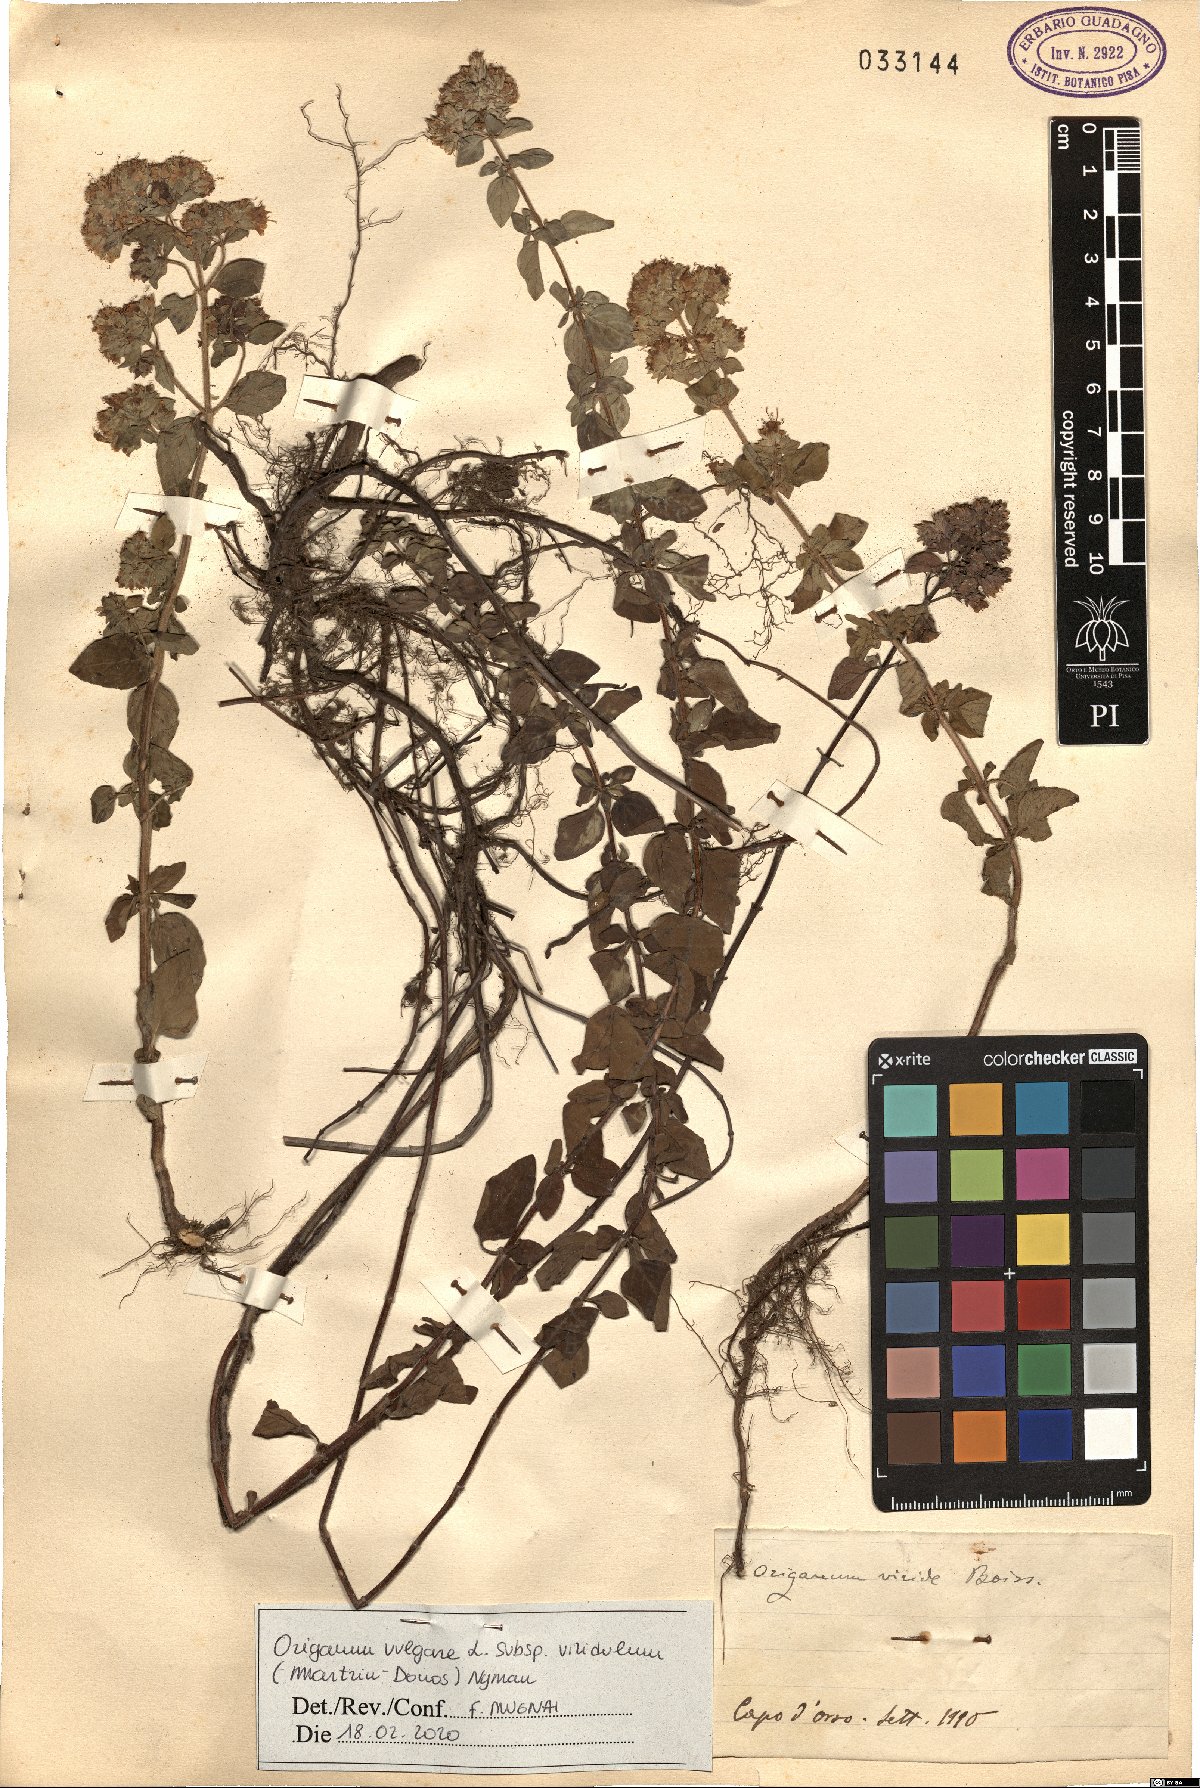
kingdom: Plantae
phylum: Tracheophyta
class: Magnoliopsida
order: Lamiales
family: Lamiaceae
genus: Origanum
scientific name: Origanum vulgare
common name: Wild marjoram
